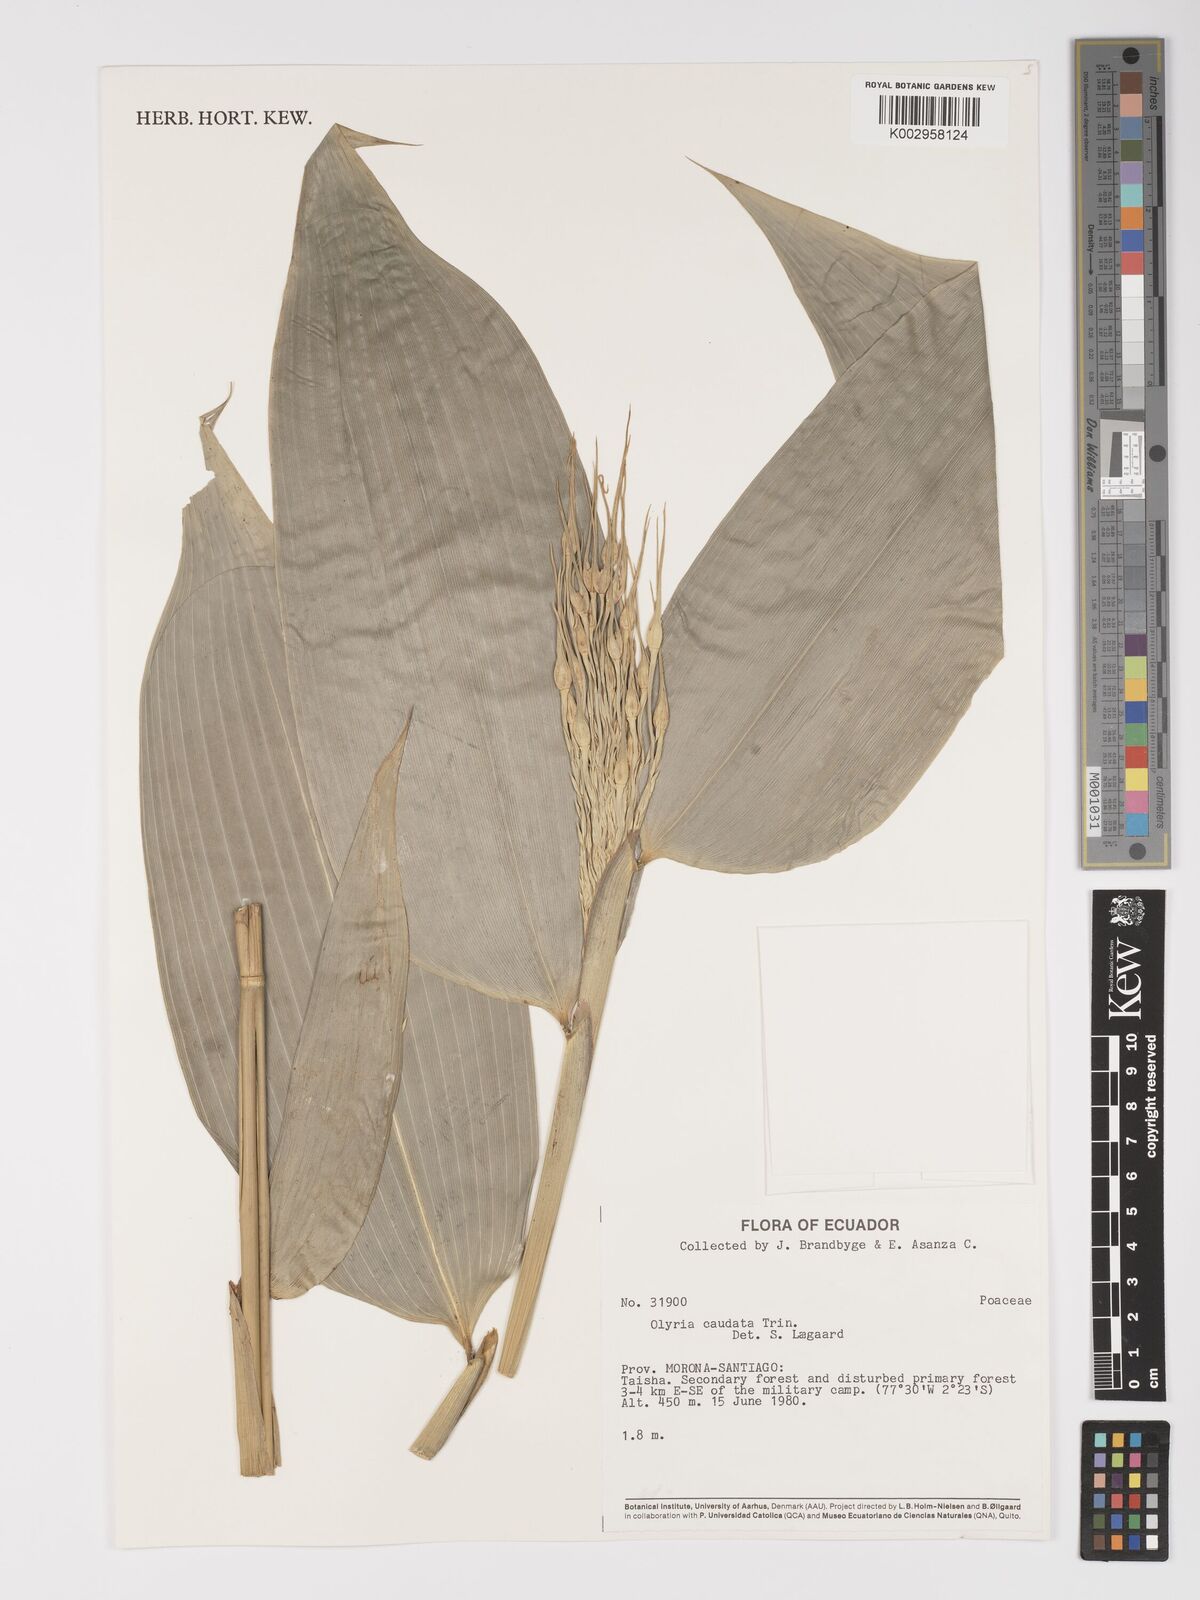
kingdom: Plantae
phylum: Tracheophyta
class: Liliopsida
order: Poales
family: Poaceae
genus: Olyra
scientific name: Olyra caudata
